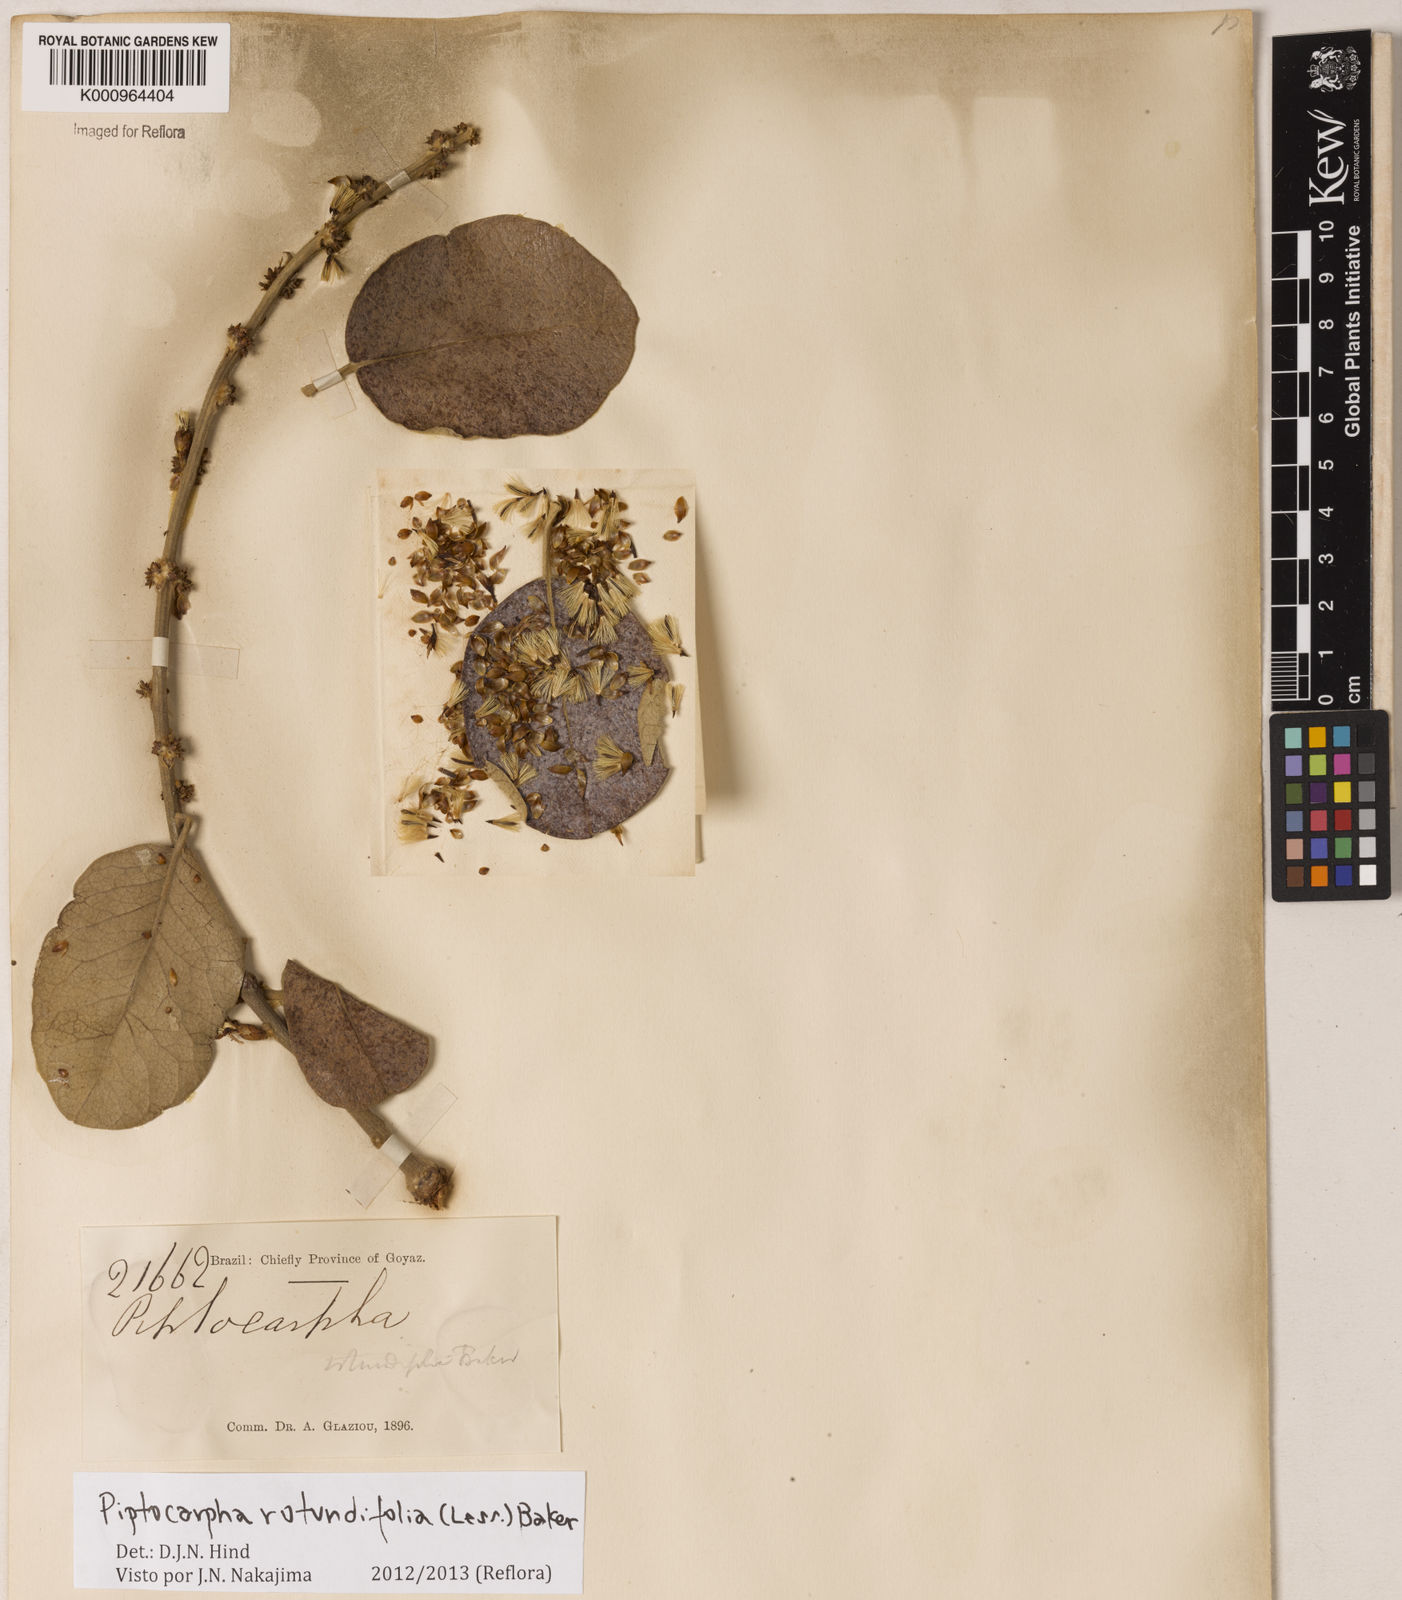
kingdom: Plantae
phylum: Tracheophyta
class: Magnoliopsida
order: Asterales
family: Asteraceae
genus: Piptocarpha
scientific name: Piptocarpha rotundifolia
